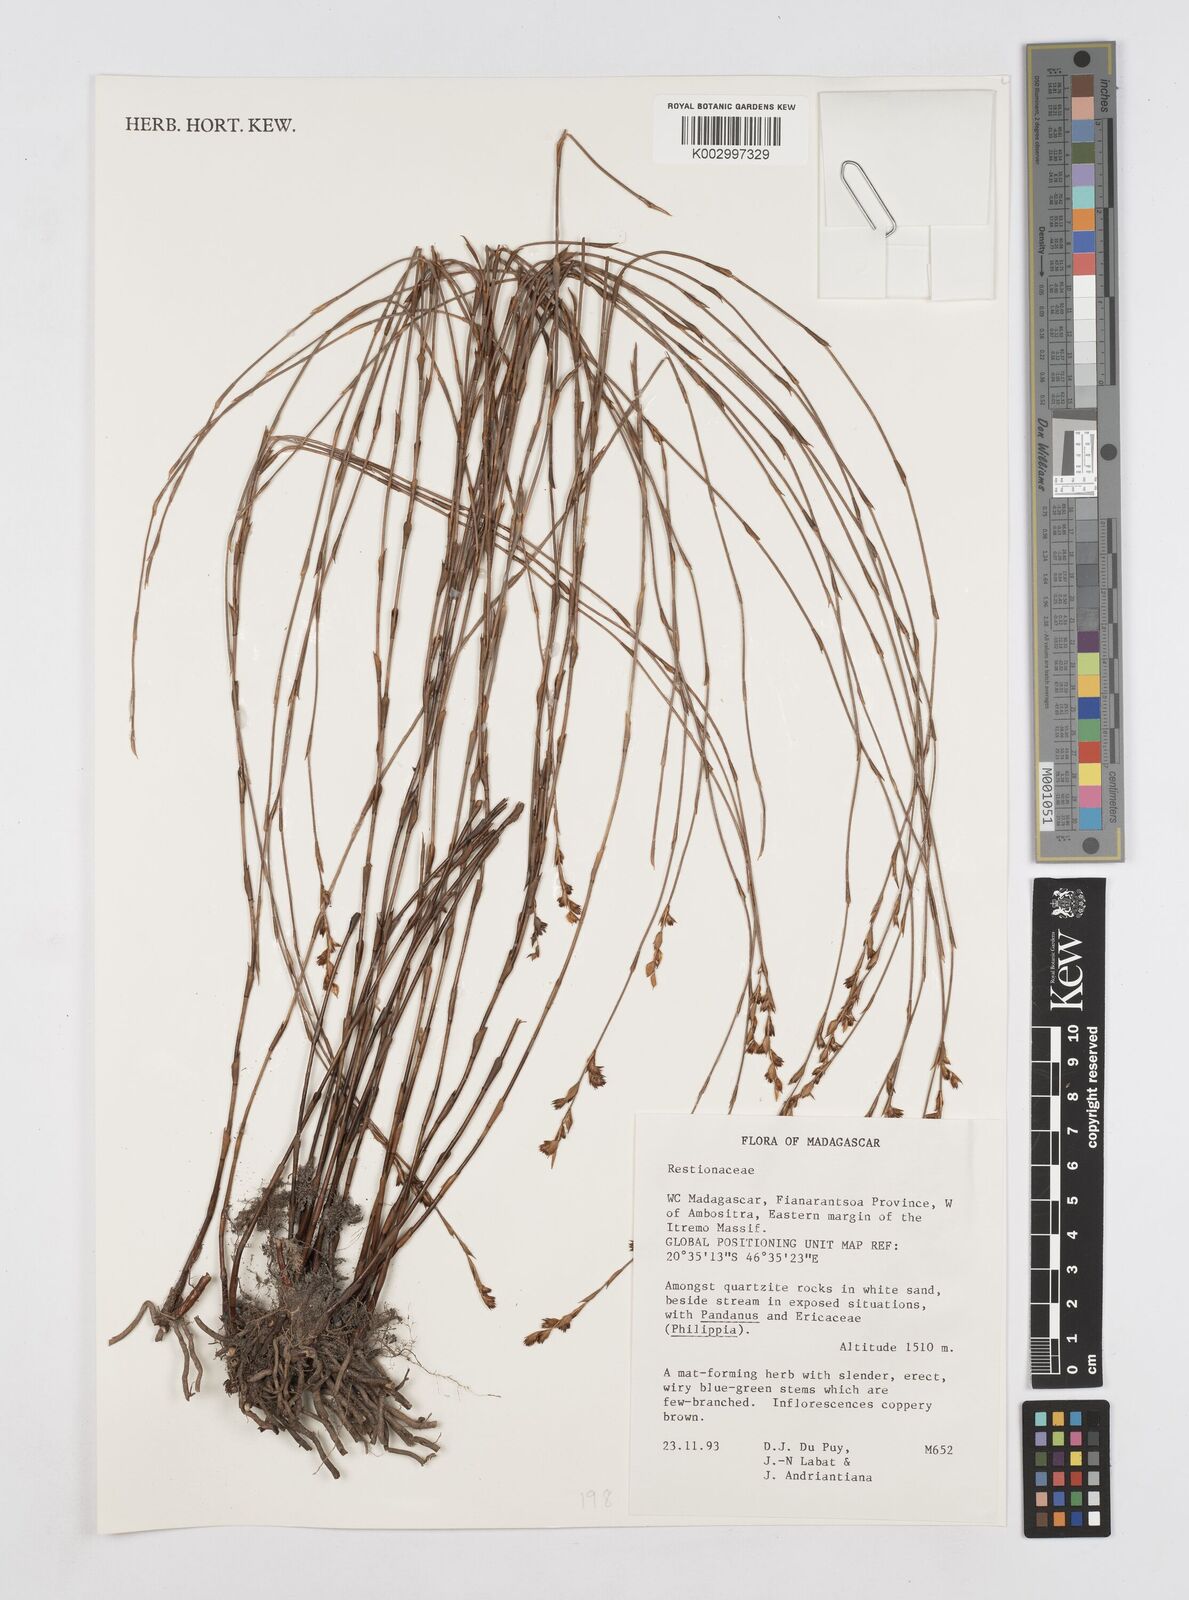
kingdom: Plantae
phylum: Tracheophyta
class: Liliopsida
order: Poales
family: Restionaceae
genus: Platycaulos
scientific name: Platycaulos
